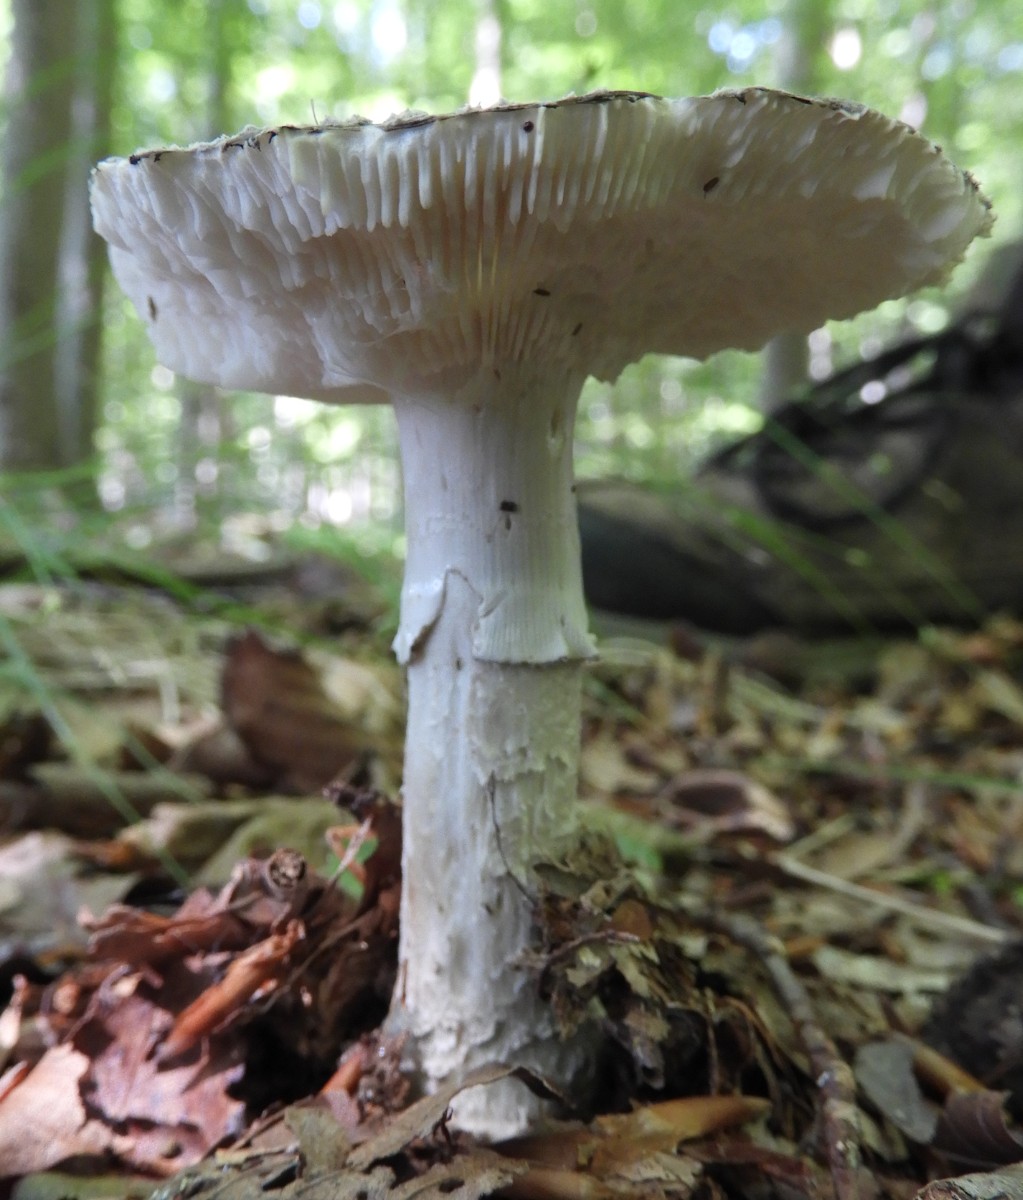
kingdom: Fungi
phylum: Basidiomycota
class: Agaricomycetes
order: Agaricales
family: Amanitaceae
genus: Amanita
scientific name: Amanita
